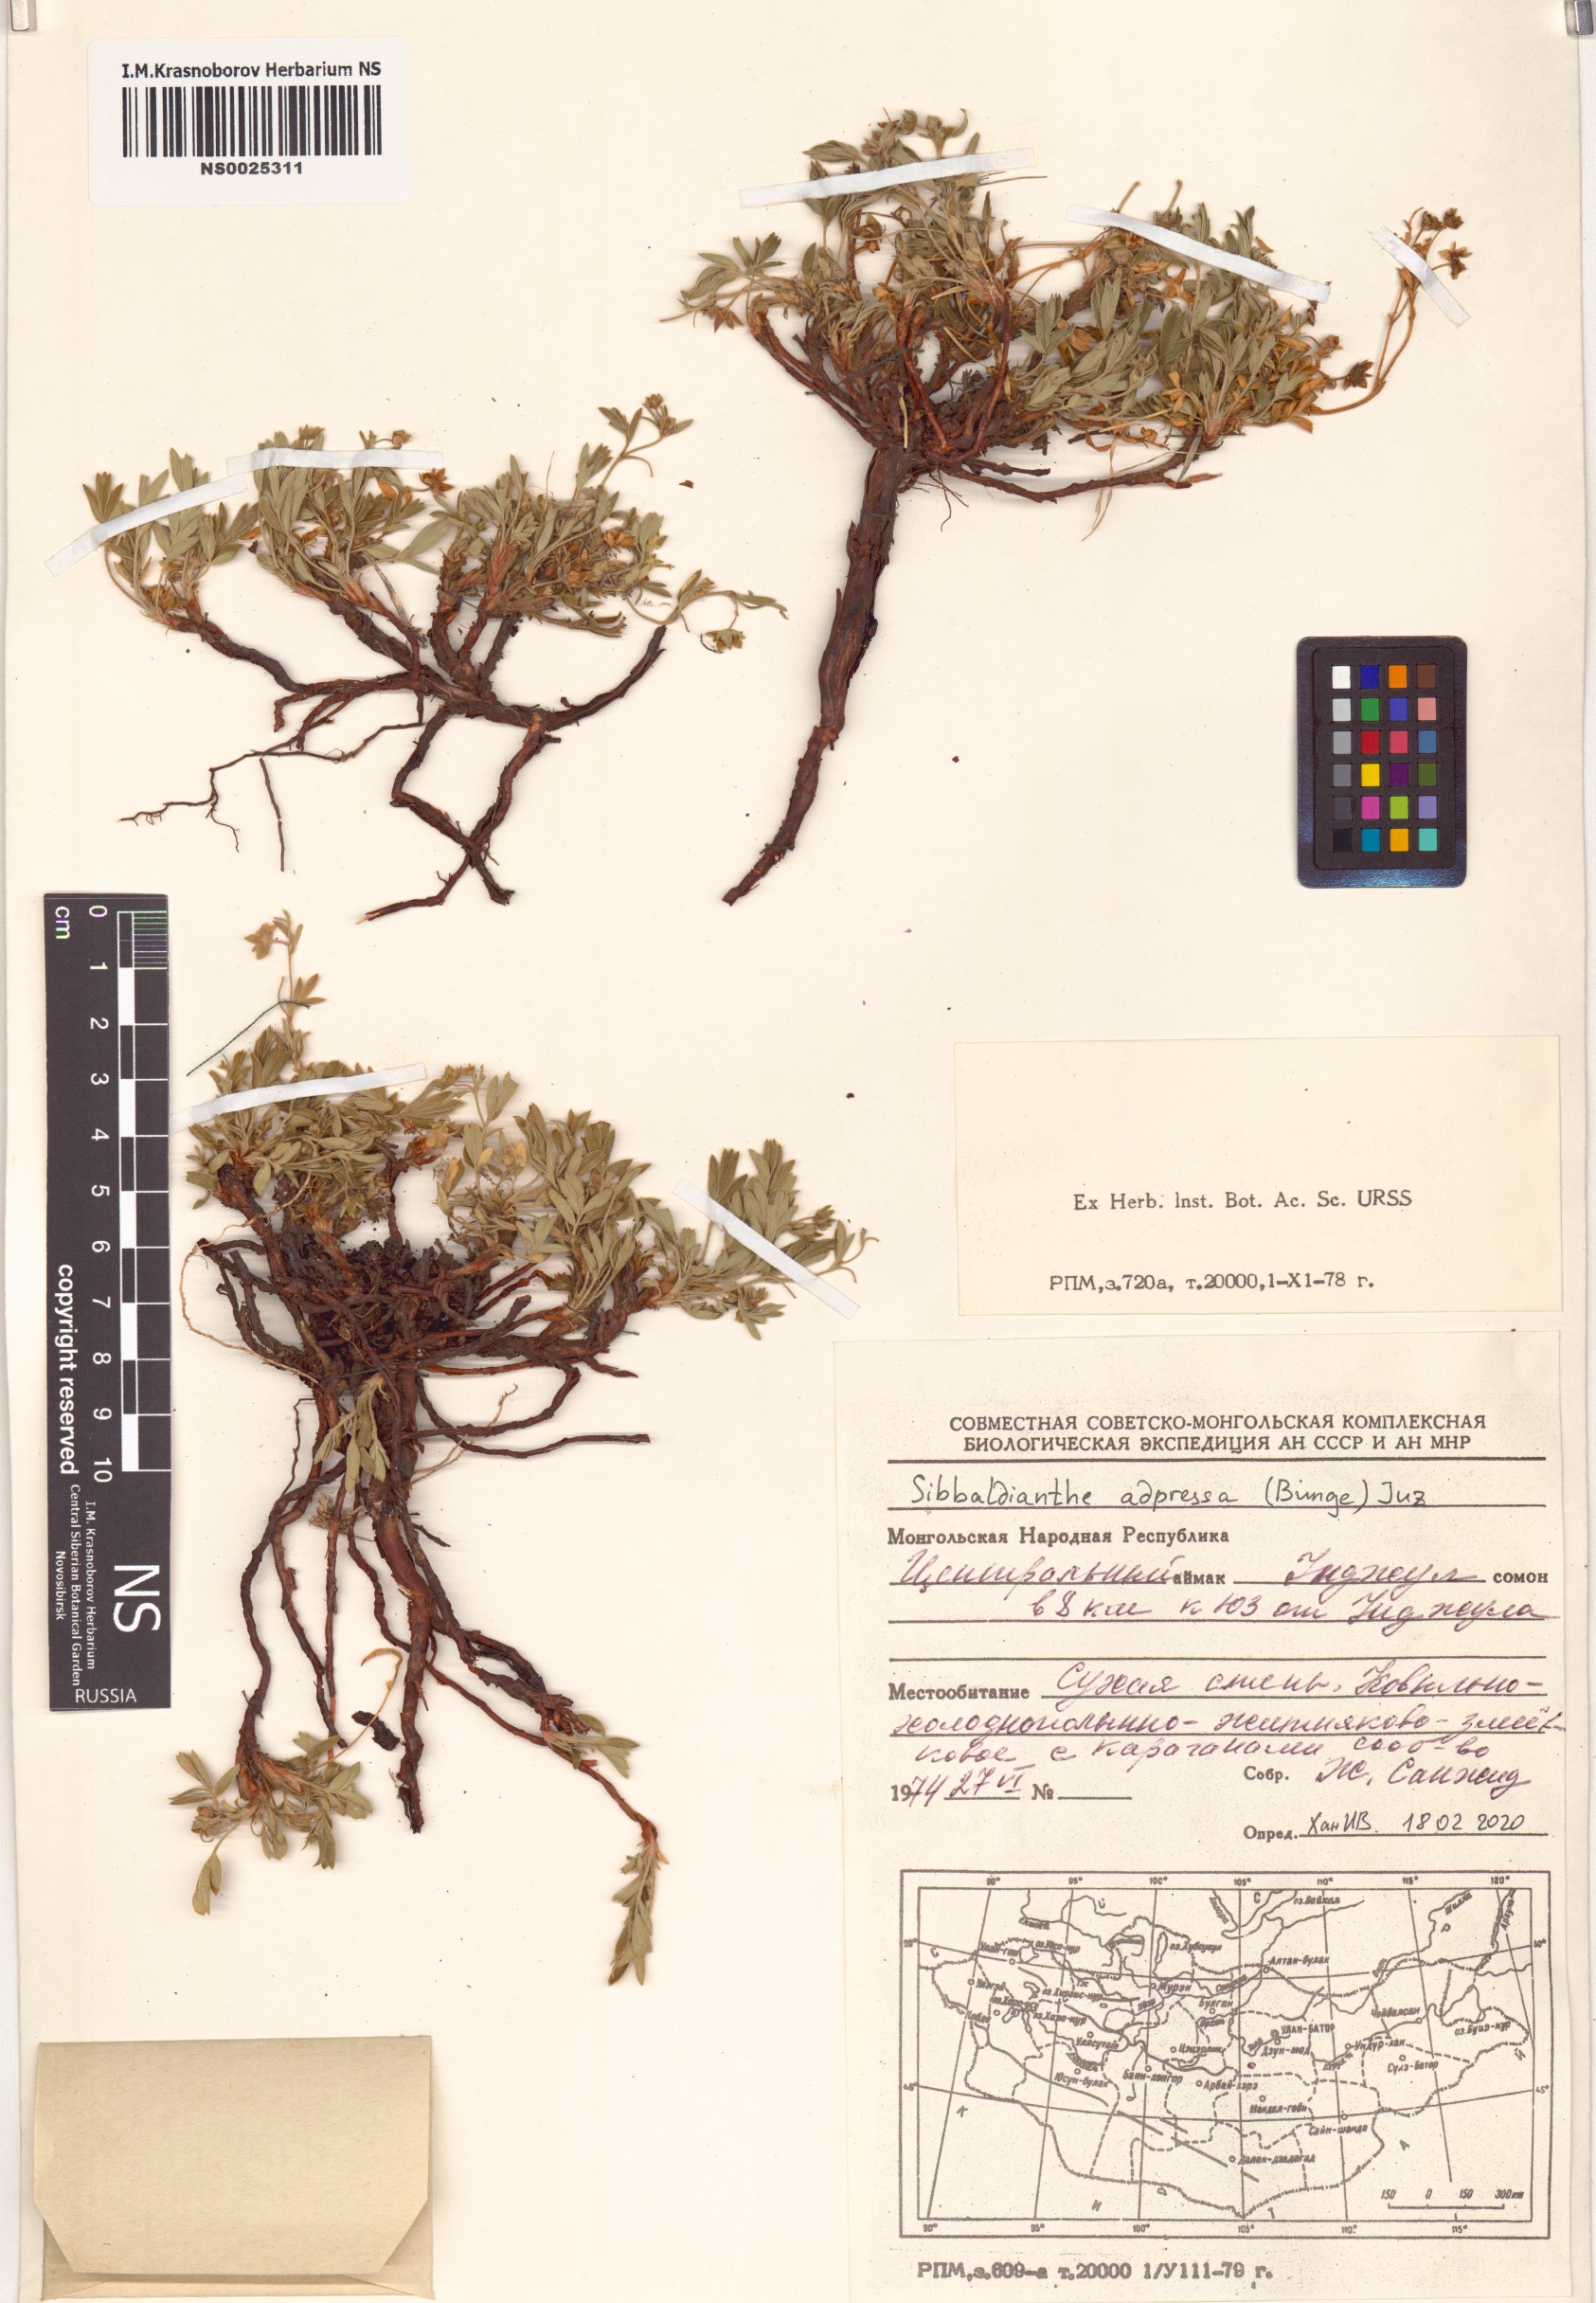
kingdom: Plantae
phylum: Tracheophyta
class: Magnoliopsida
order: Rosales
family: Rosaceae
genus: Sibbaldianthe
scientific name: Sibbaldianthe adpressa
